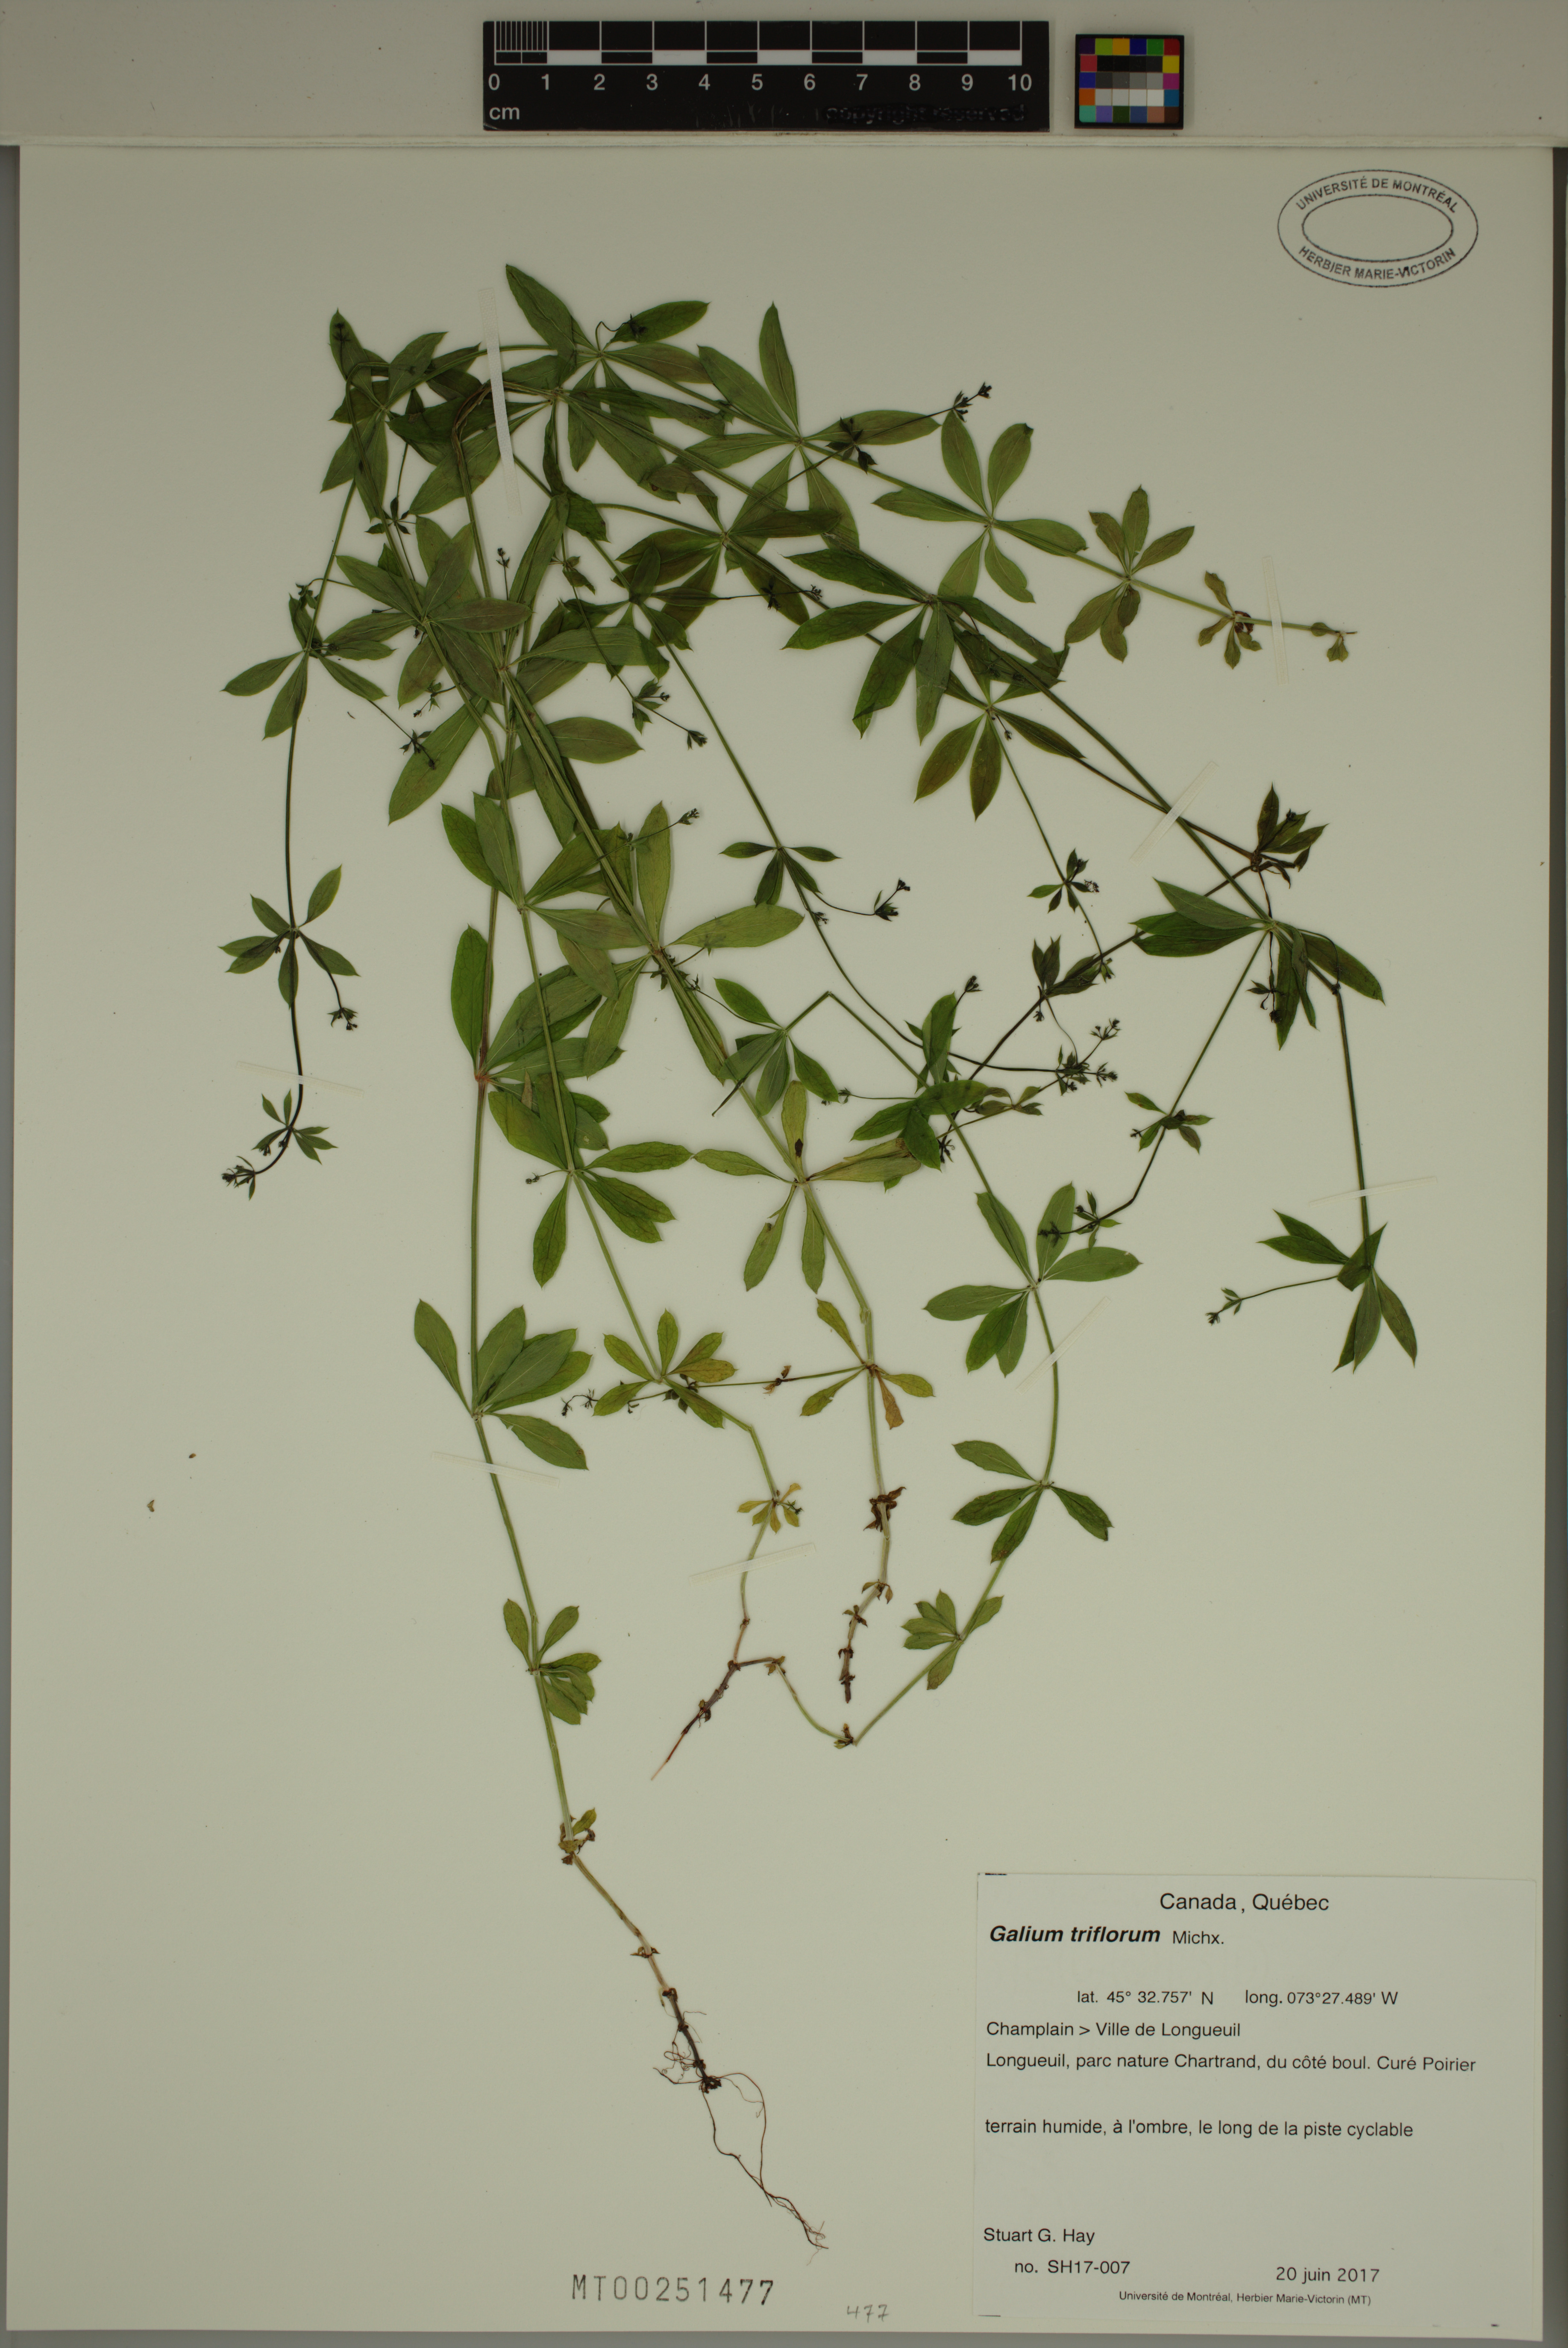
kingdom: Plantae
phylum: Tracheophyta
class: Magnoliopsida
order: Gentianales
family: Rubiaceae
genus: Galium
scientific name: Galium triflorum
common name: Fragrant bedstraw
